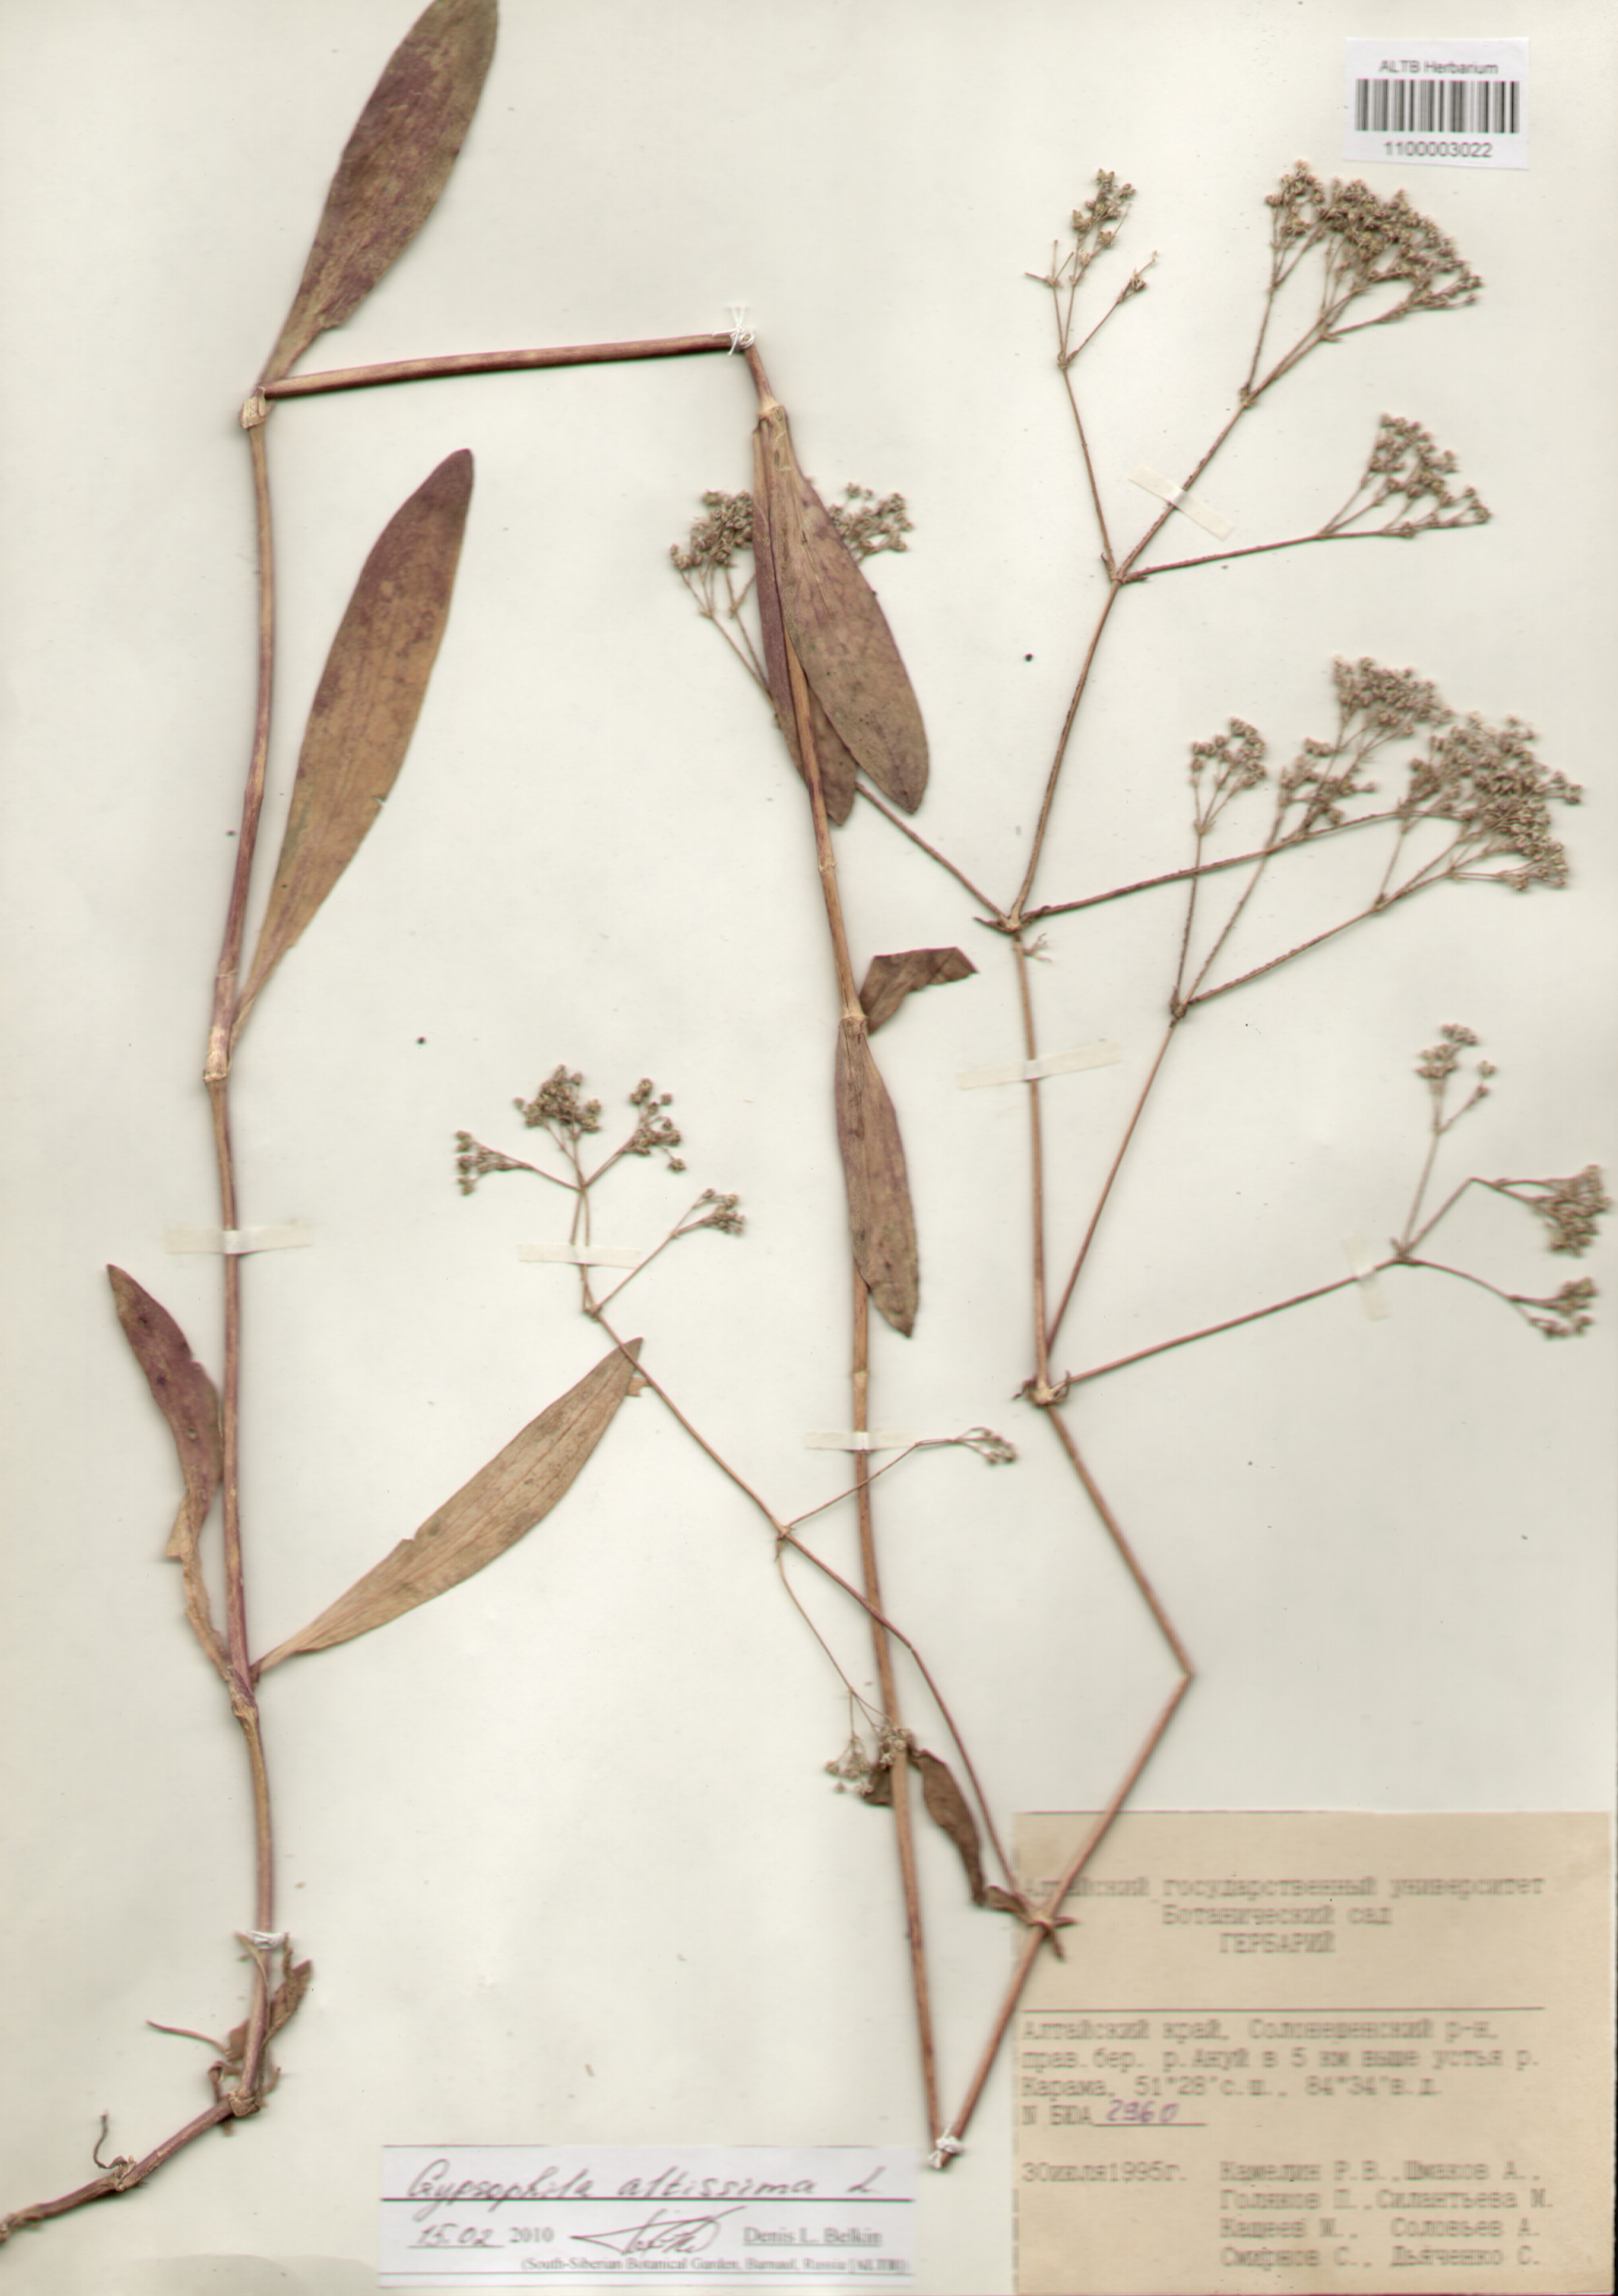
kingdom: Plantae
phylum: Tracheophyta
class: Magnoliopsida
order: Caryophyllales
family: Caryophyllaceae
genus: Gypsophila
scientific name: Gypsophila altissima
